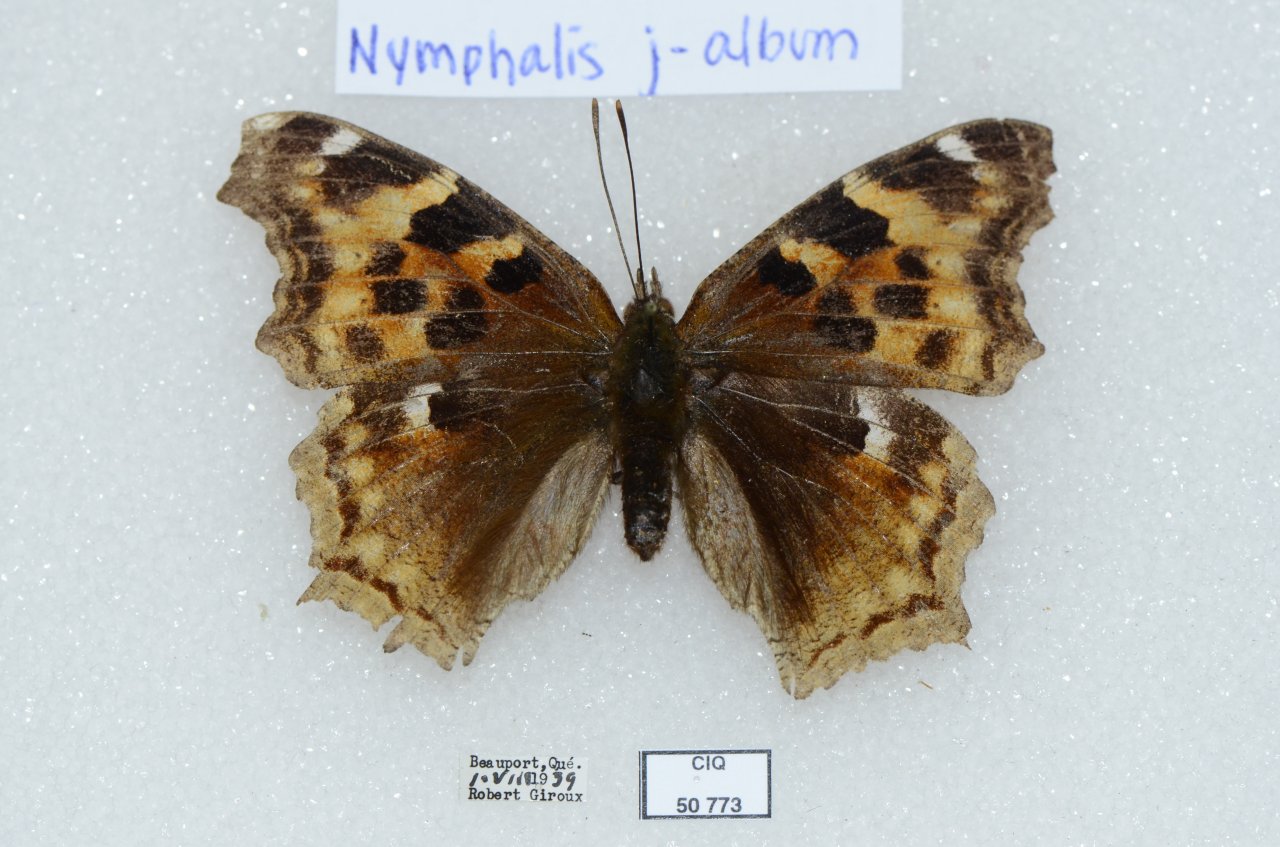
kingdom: Animalia
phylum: Arthropoda
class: Insecta
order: Lepidoptera
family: Nymphalidae
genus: Polygonia
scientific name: Polygonia vaualbum
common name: Compton Tortoiseshell
